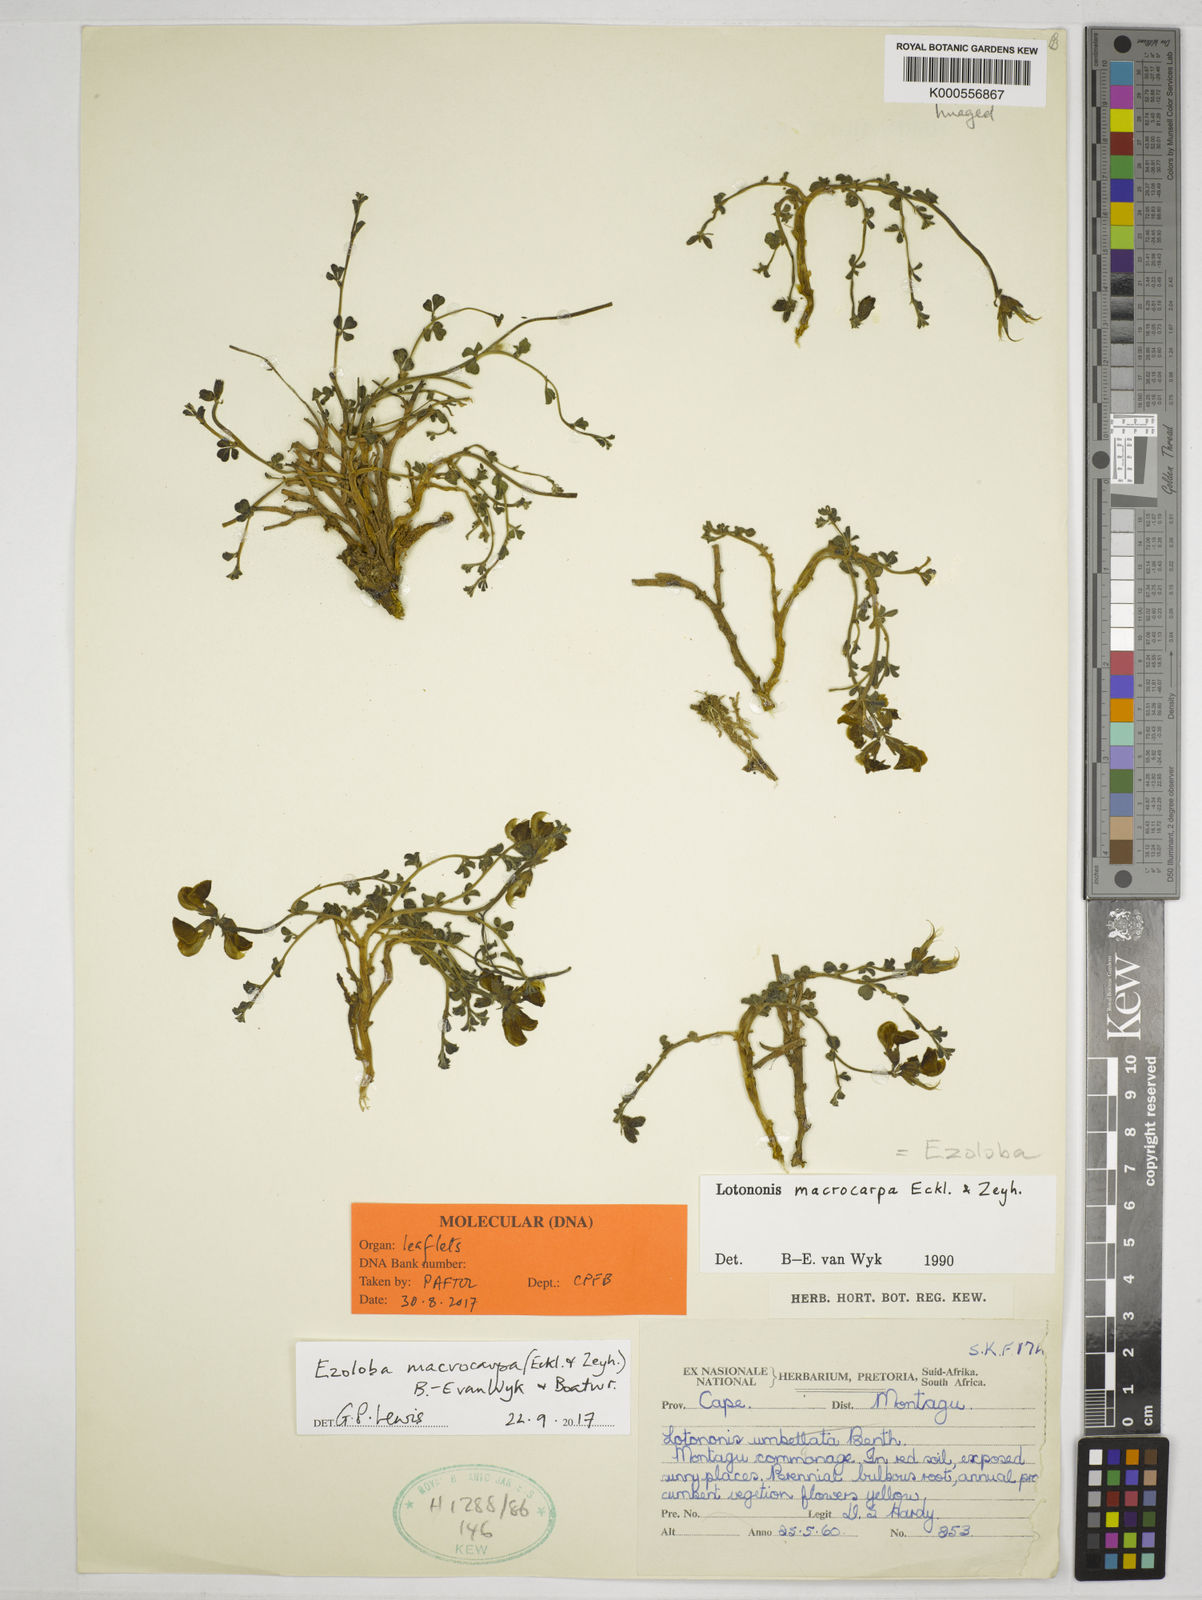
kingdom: Plantae
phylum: Tracheophyta
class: Magnoliopsida
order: Fabales
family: Fabaceae
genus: Ezoloba
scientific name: Ezoloba macrocarpa
